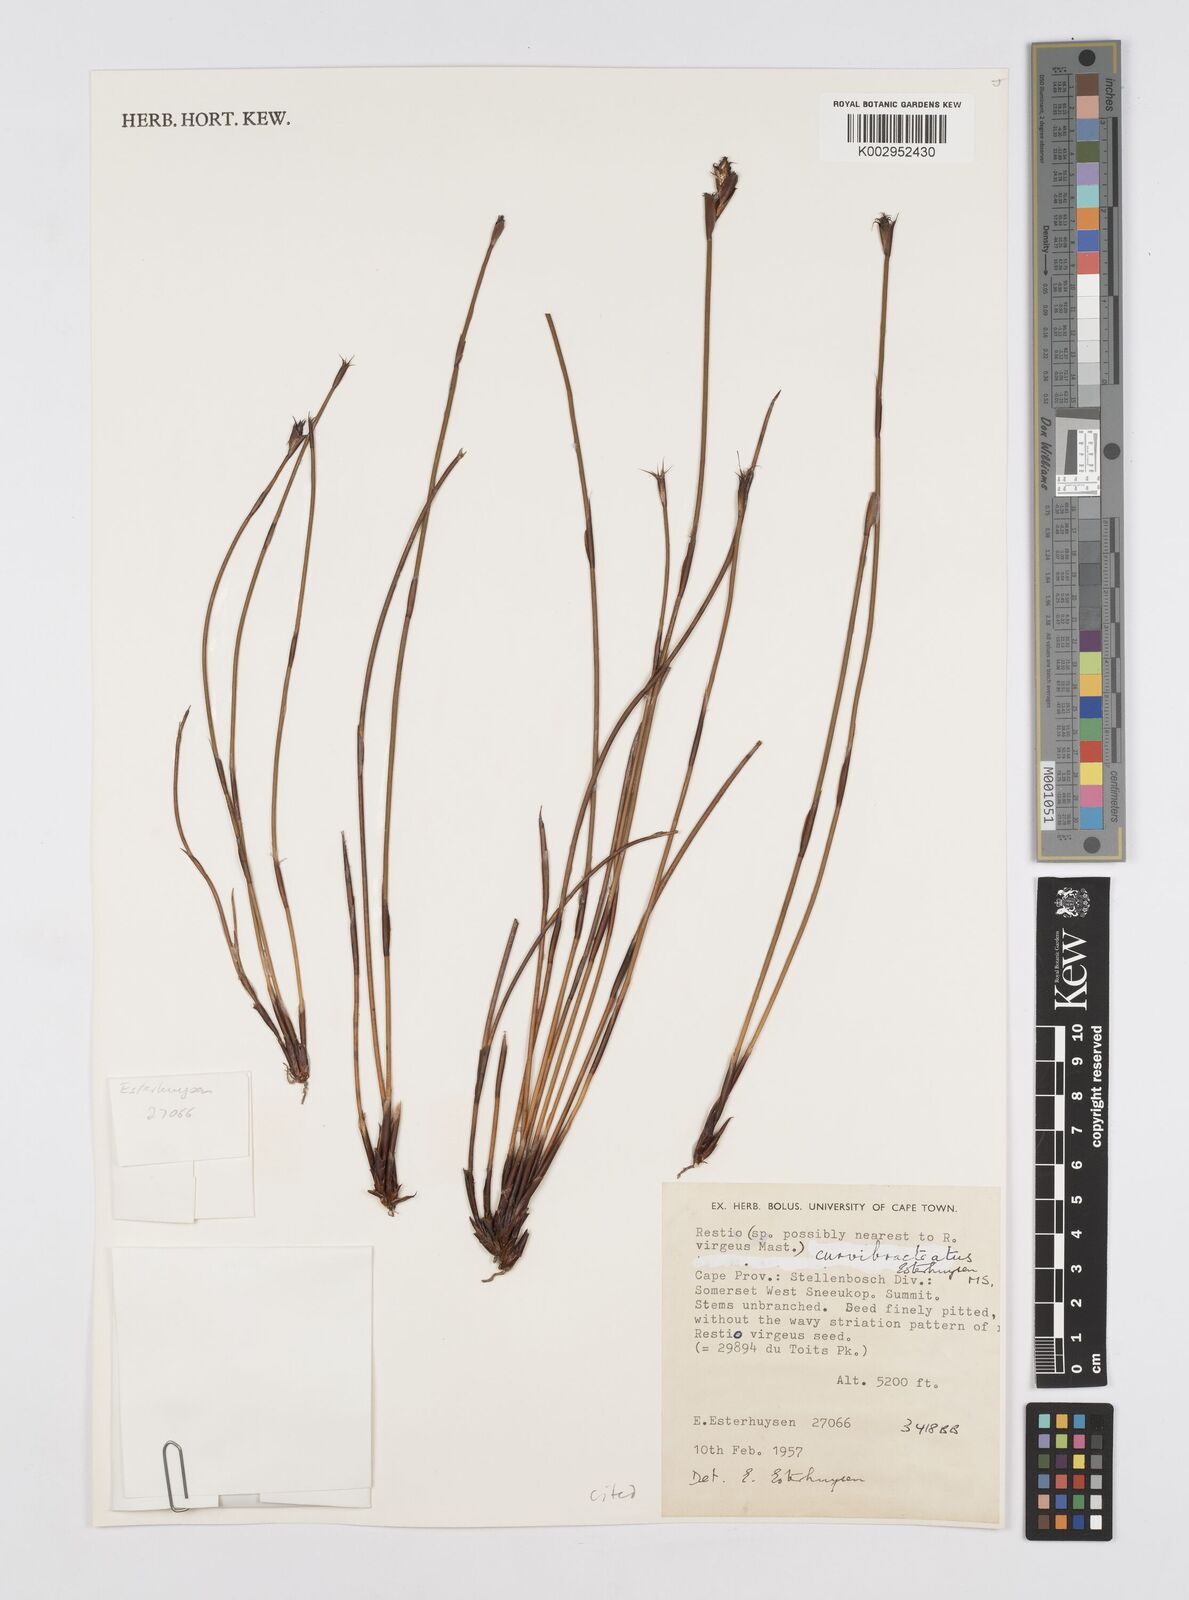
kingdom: Plantae
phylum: Tracheophyta
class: Liliopsida
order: Poales
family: Restionaceae
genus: Restio
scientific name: Restio curvibracteatus
